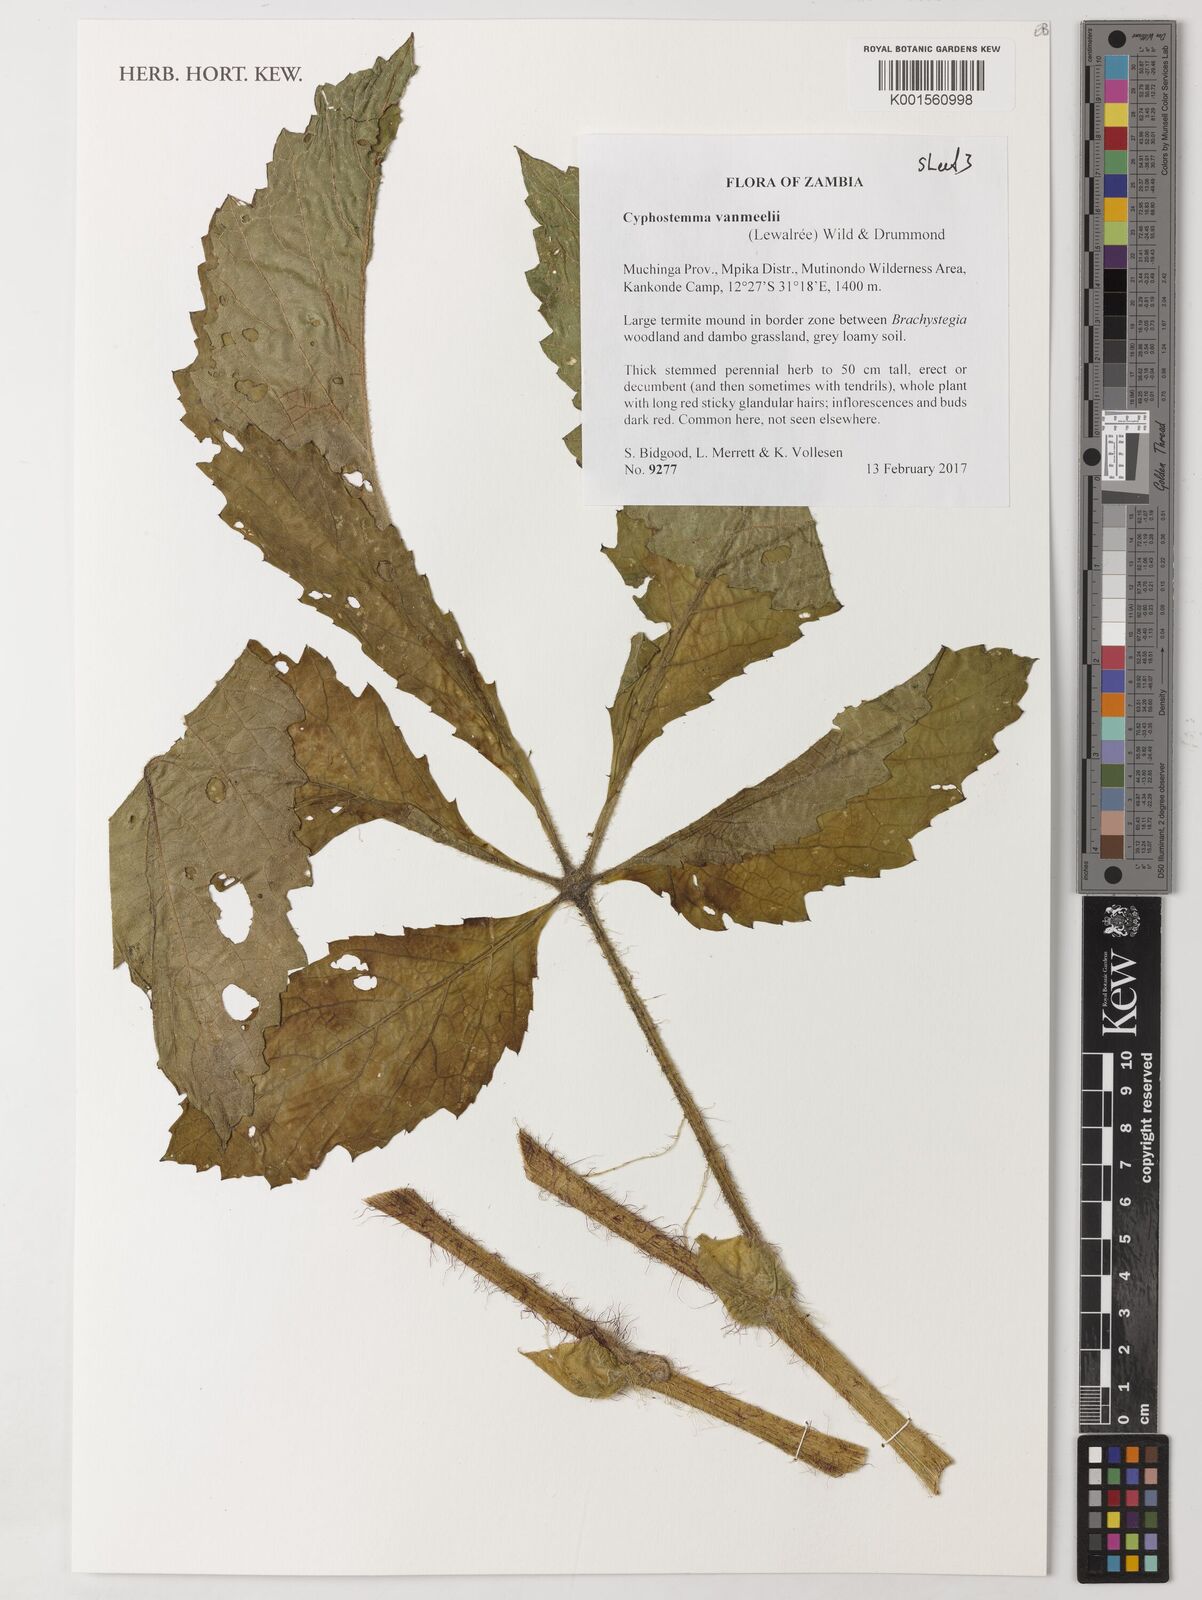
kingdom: Plantae
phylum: Tracheophyta
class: Magnoliopsida
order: Vitales
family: Vitaceae
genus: Cyphostemma
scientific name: Cyphostemma vanmeelii
